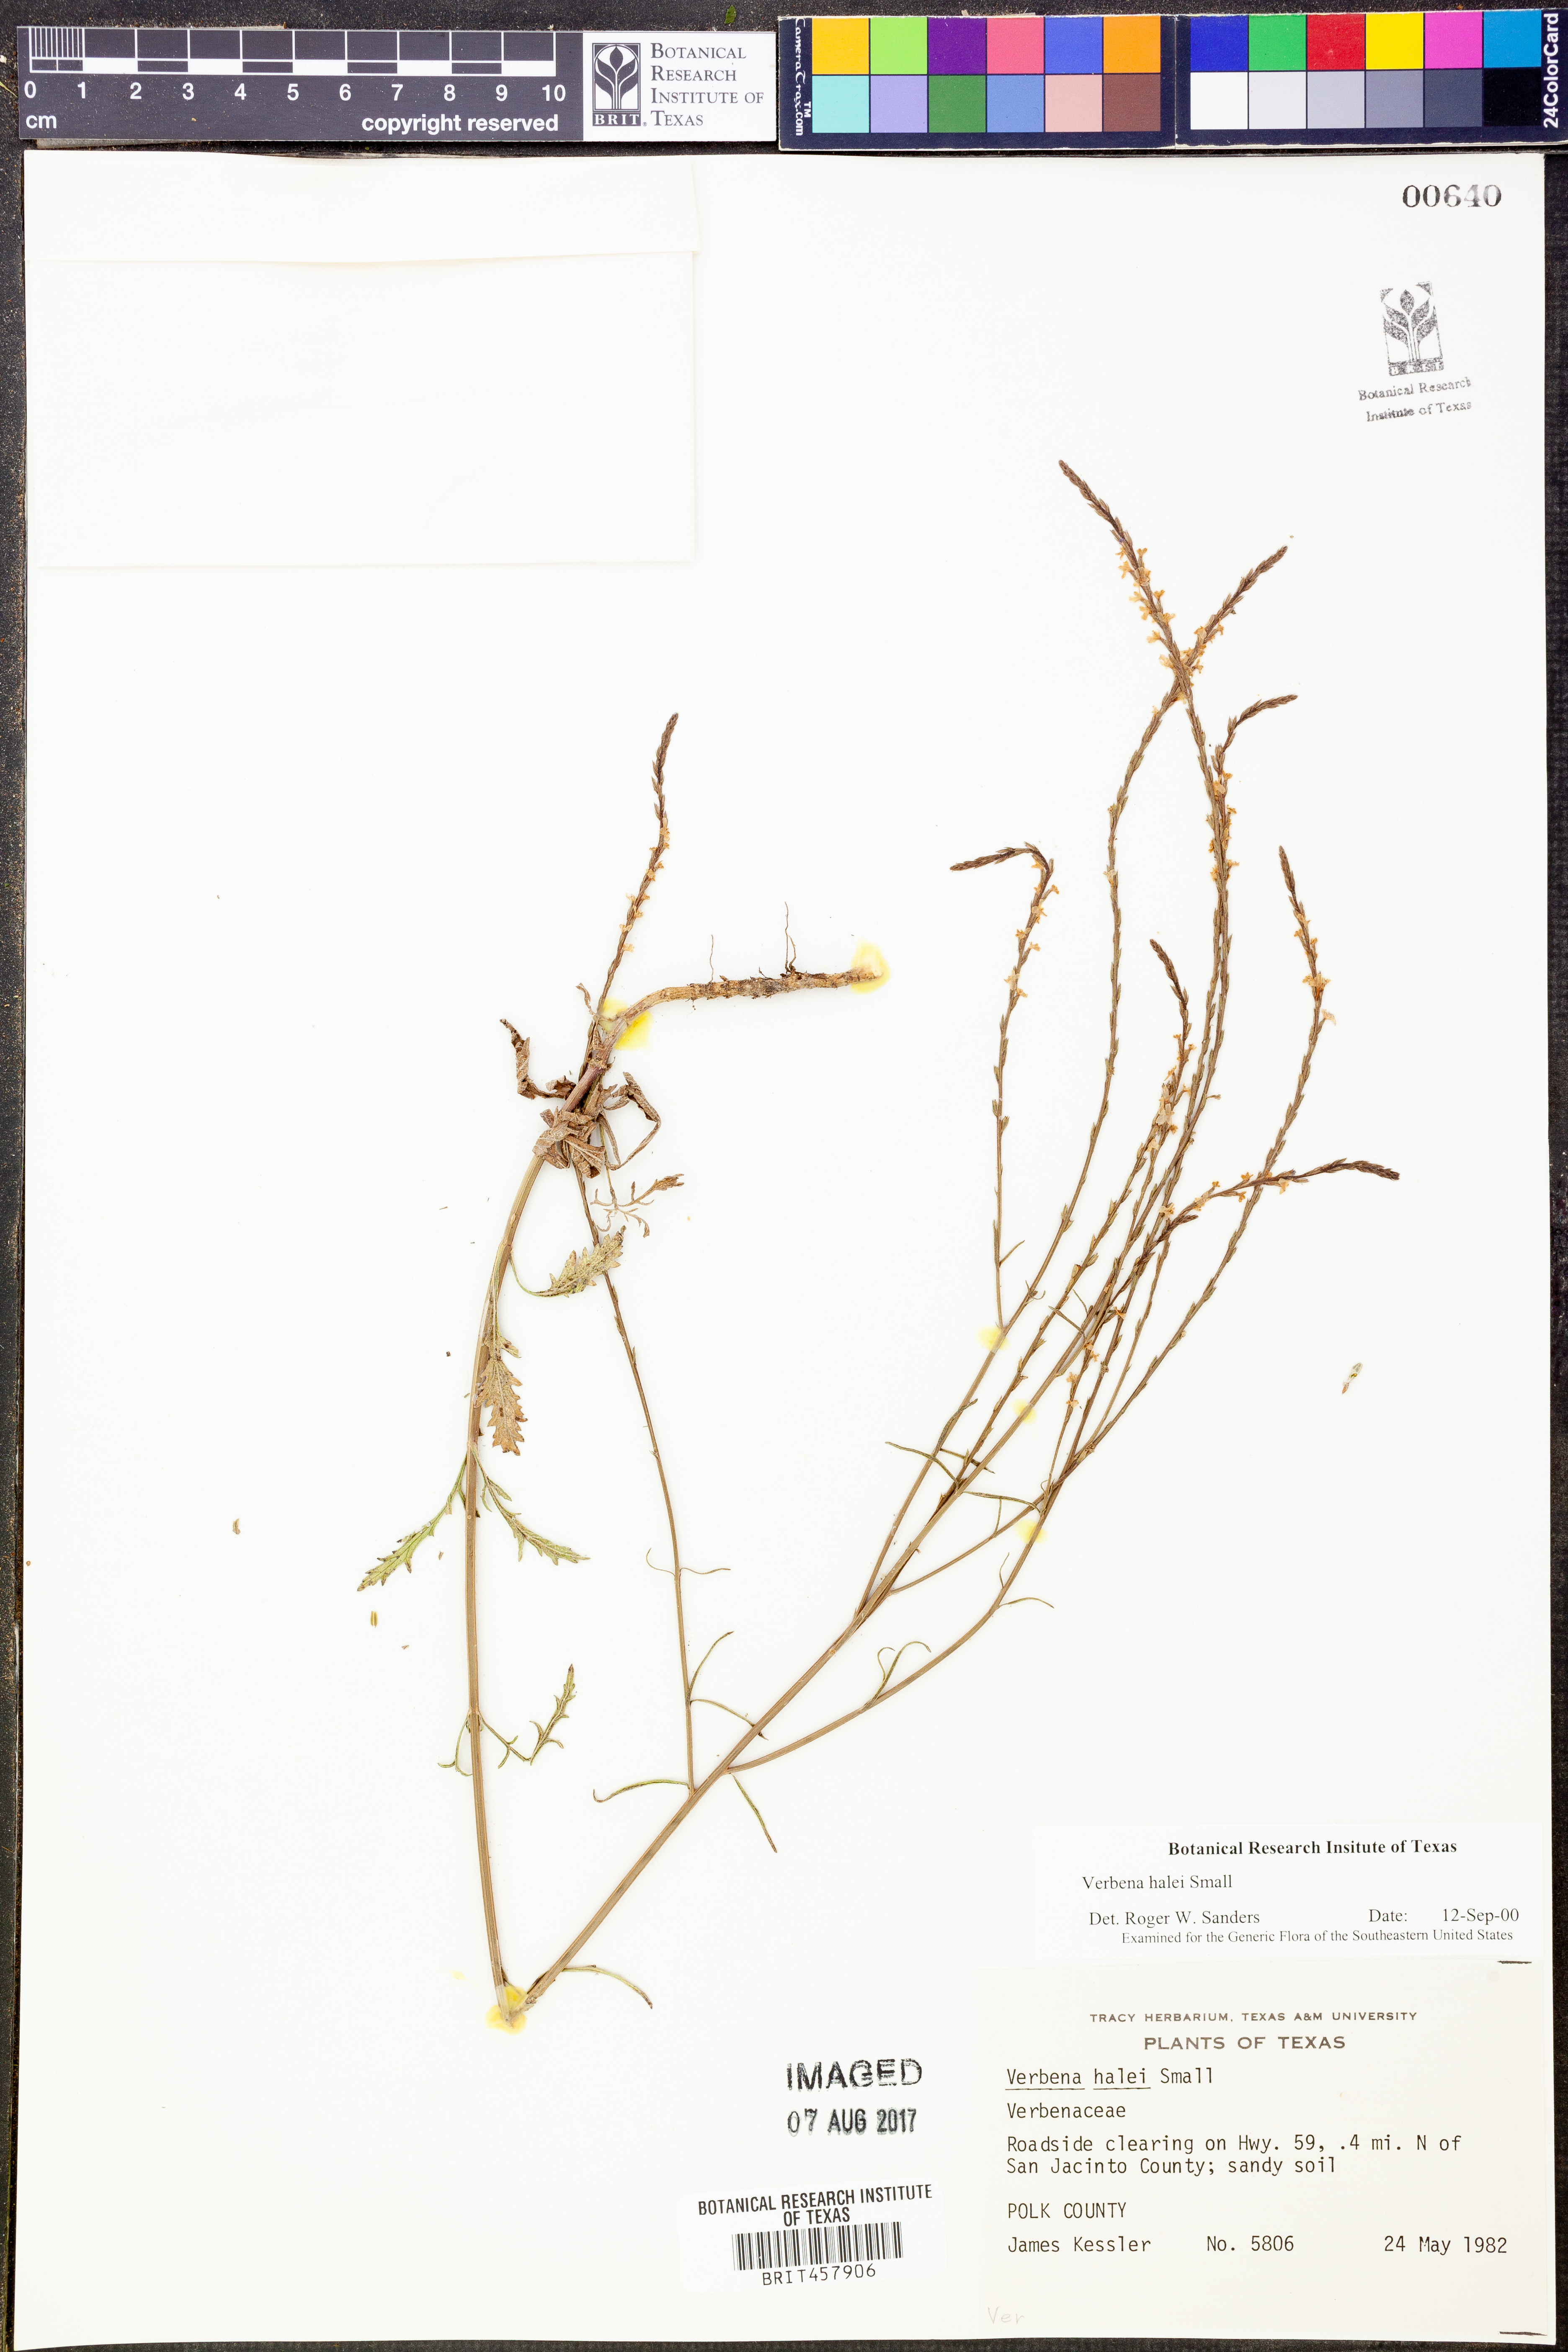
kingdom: Plantae
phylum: Tracheophyta
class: Magnoliopsida
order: Lamiales
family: Verbenaceae
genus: Verbena
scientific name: Verbena halei
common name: Texas vervain
